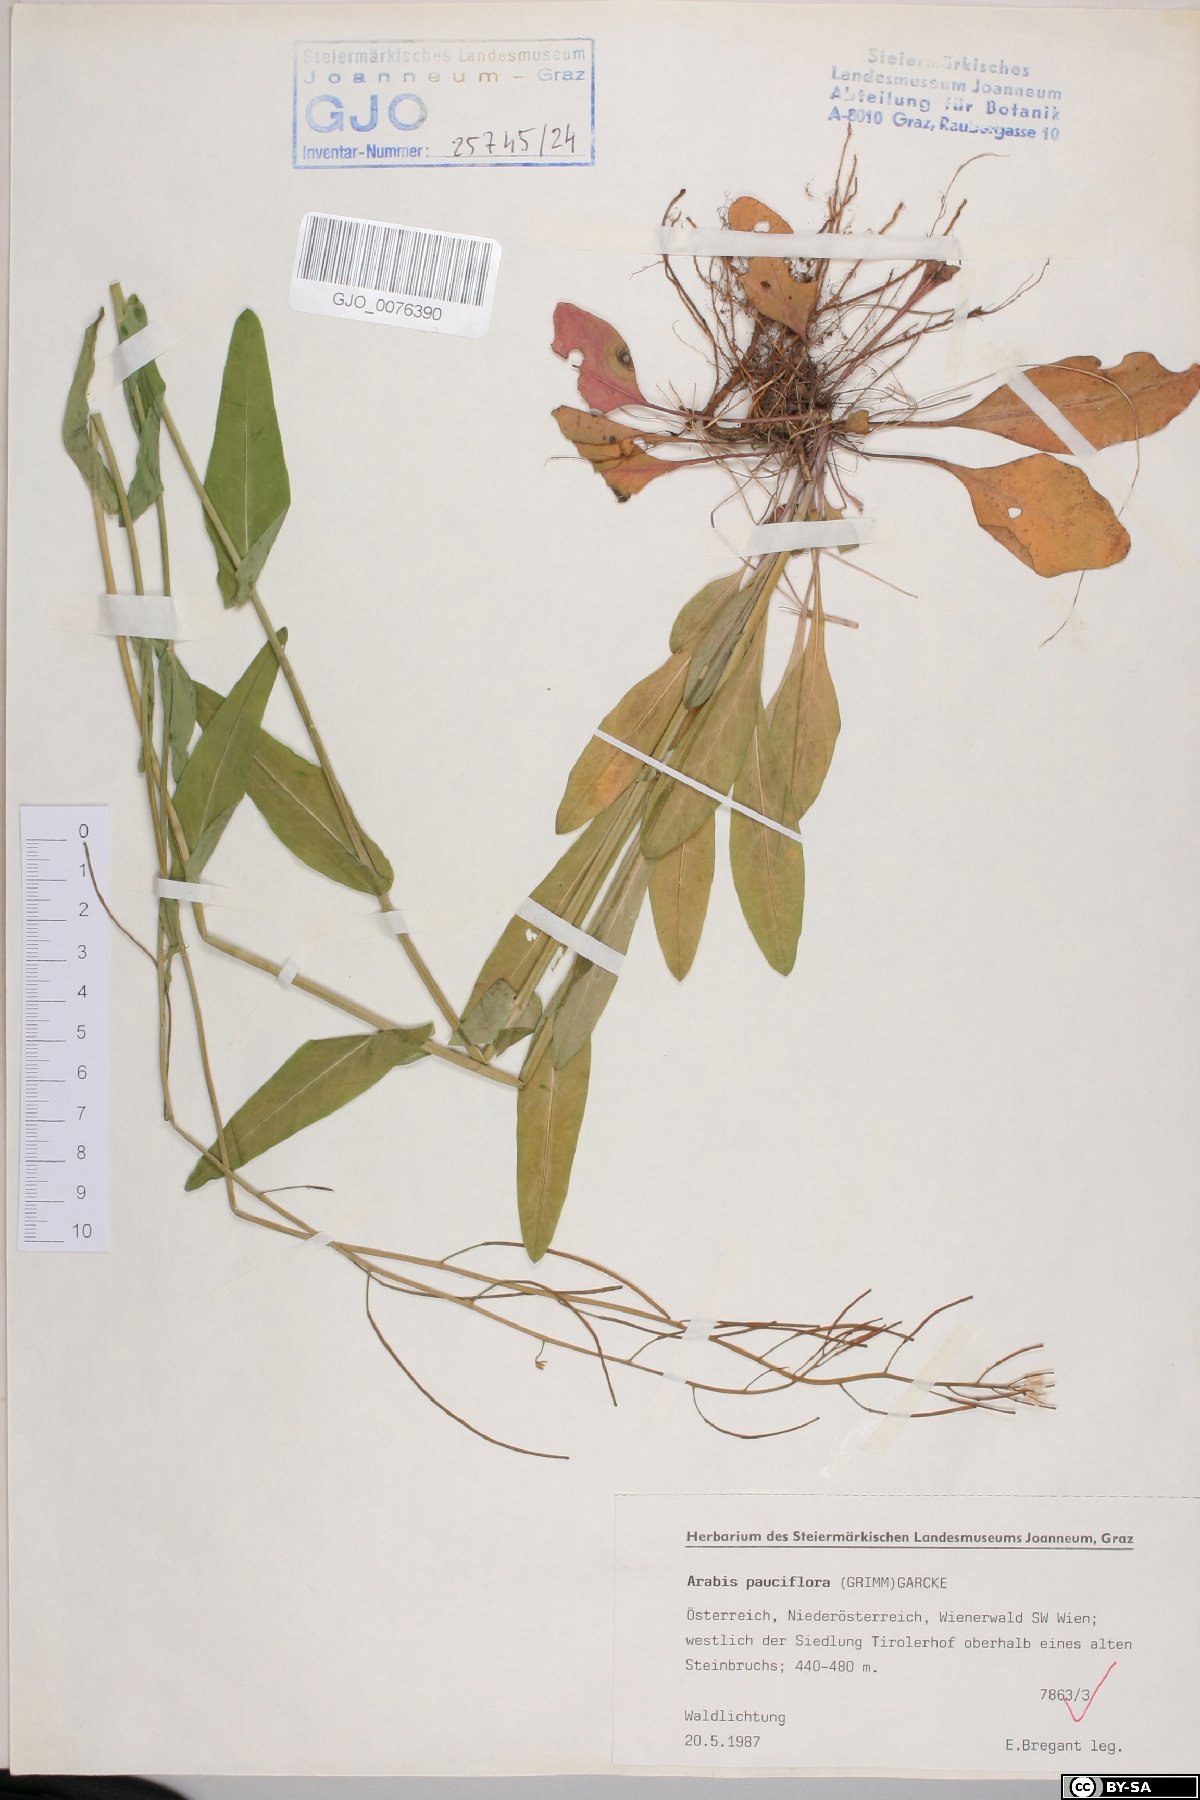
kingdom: Plantae
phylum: Tracheophyta
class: Magnoliopsida
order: Brassicales
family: Brassicaceae
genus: Fourraea
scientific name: Fourraea alpina
